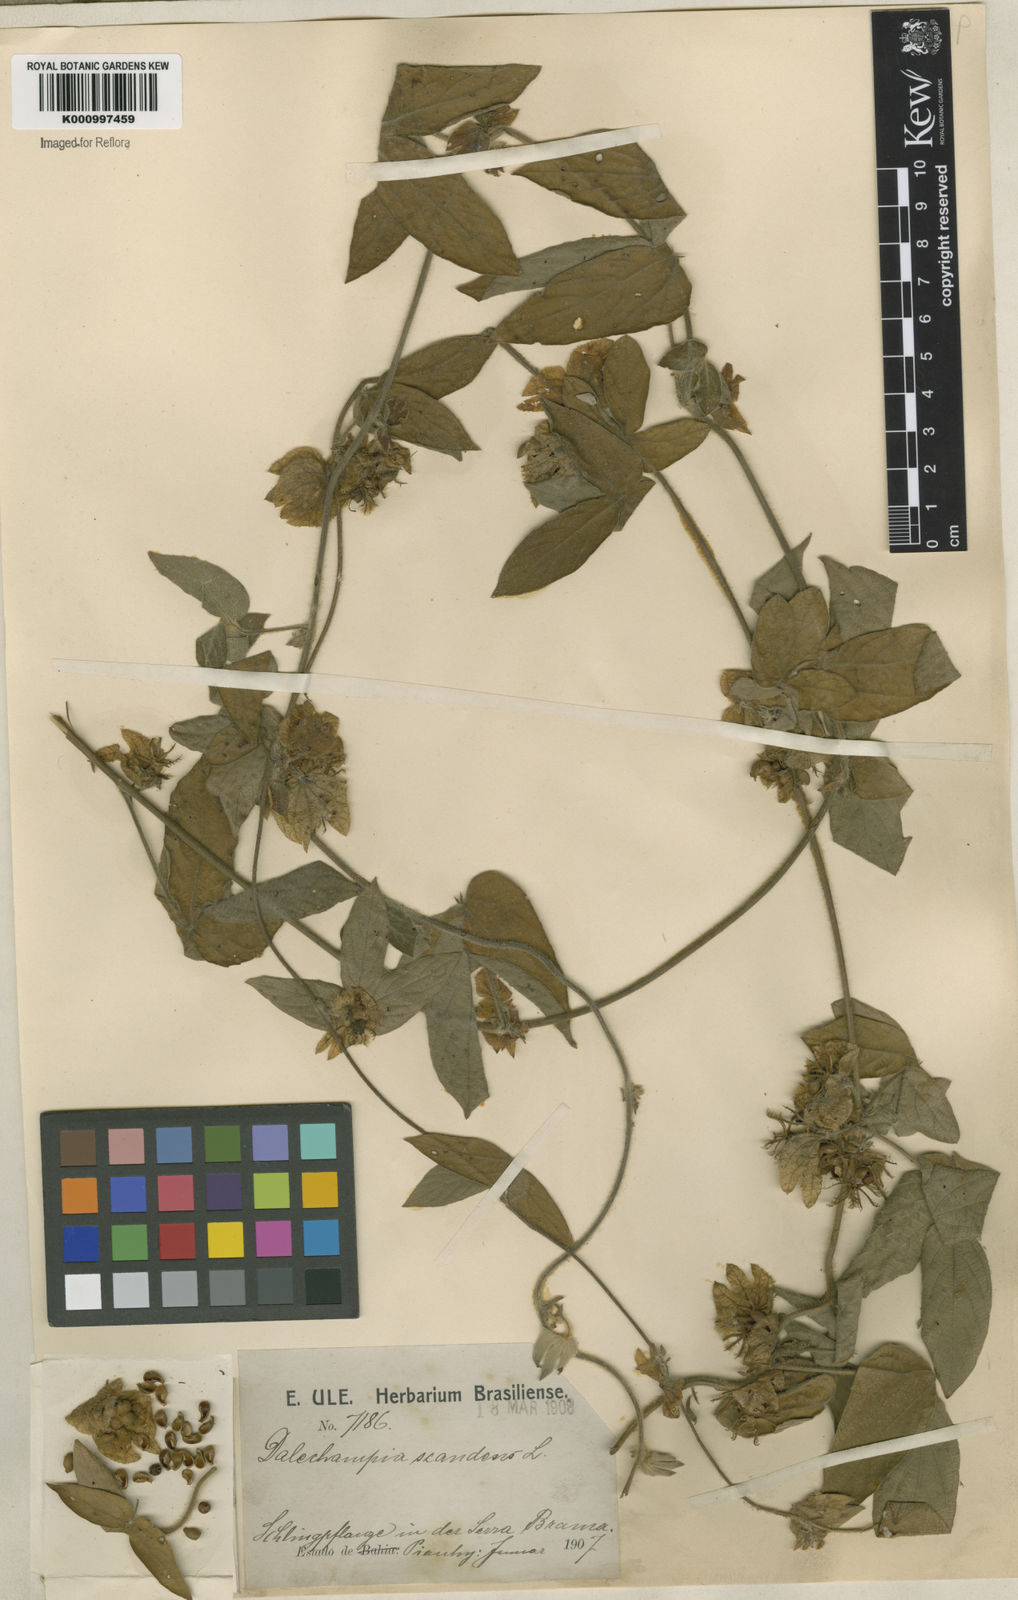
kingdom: Plantae
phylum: Tracheophyta
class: Magnoliopsida
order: Malpighiales
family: Euphorbiaceae
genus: Dalechampia
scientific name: Dalechampia scandens
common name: Spurgecreeper
